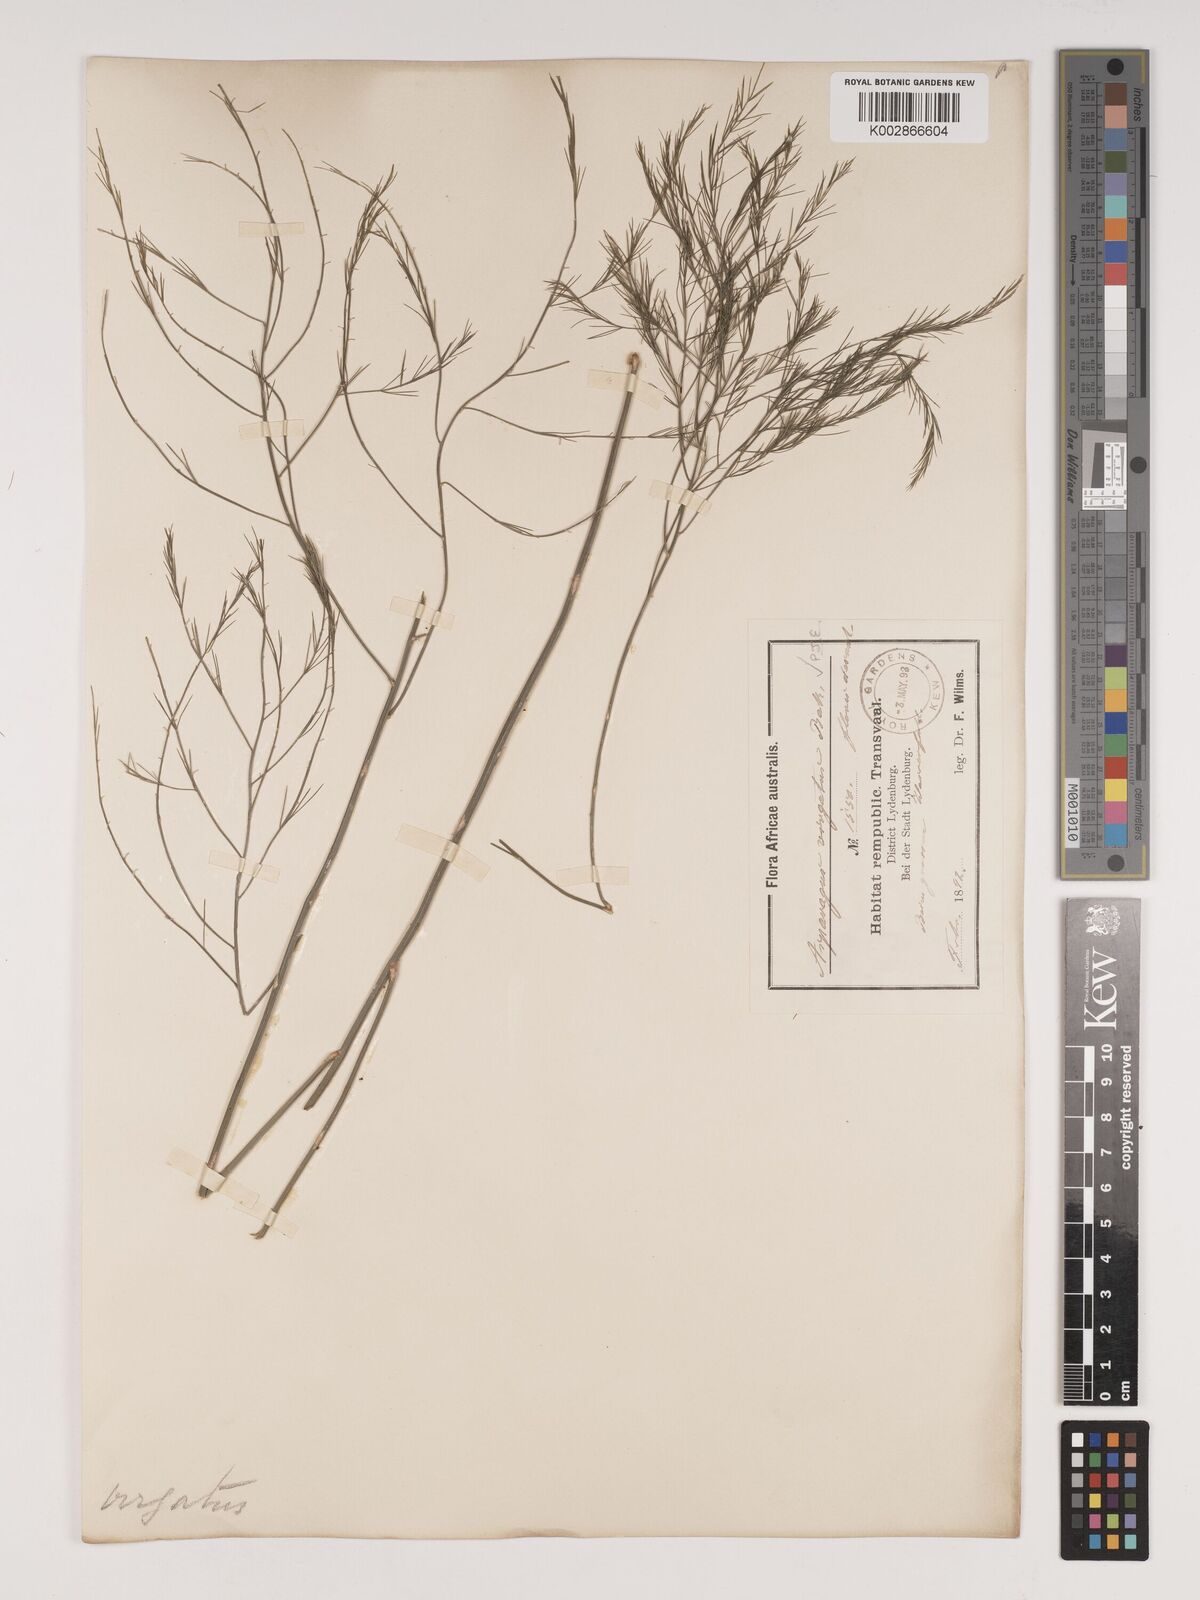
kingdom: Plantae
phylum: Tracheophyta
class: Liliopsida
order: Asparagales
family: Asparagaceae
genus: Asparagus
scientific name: Asparagus virgatus
